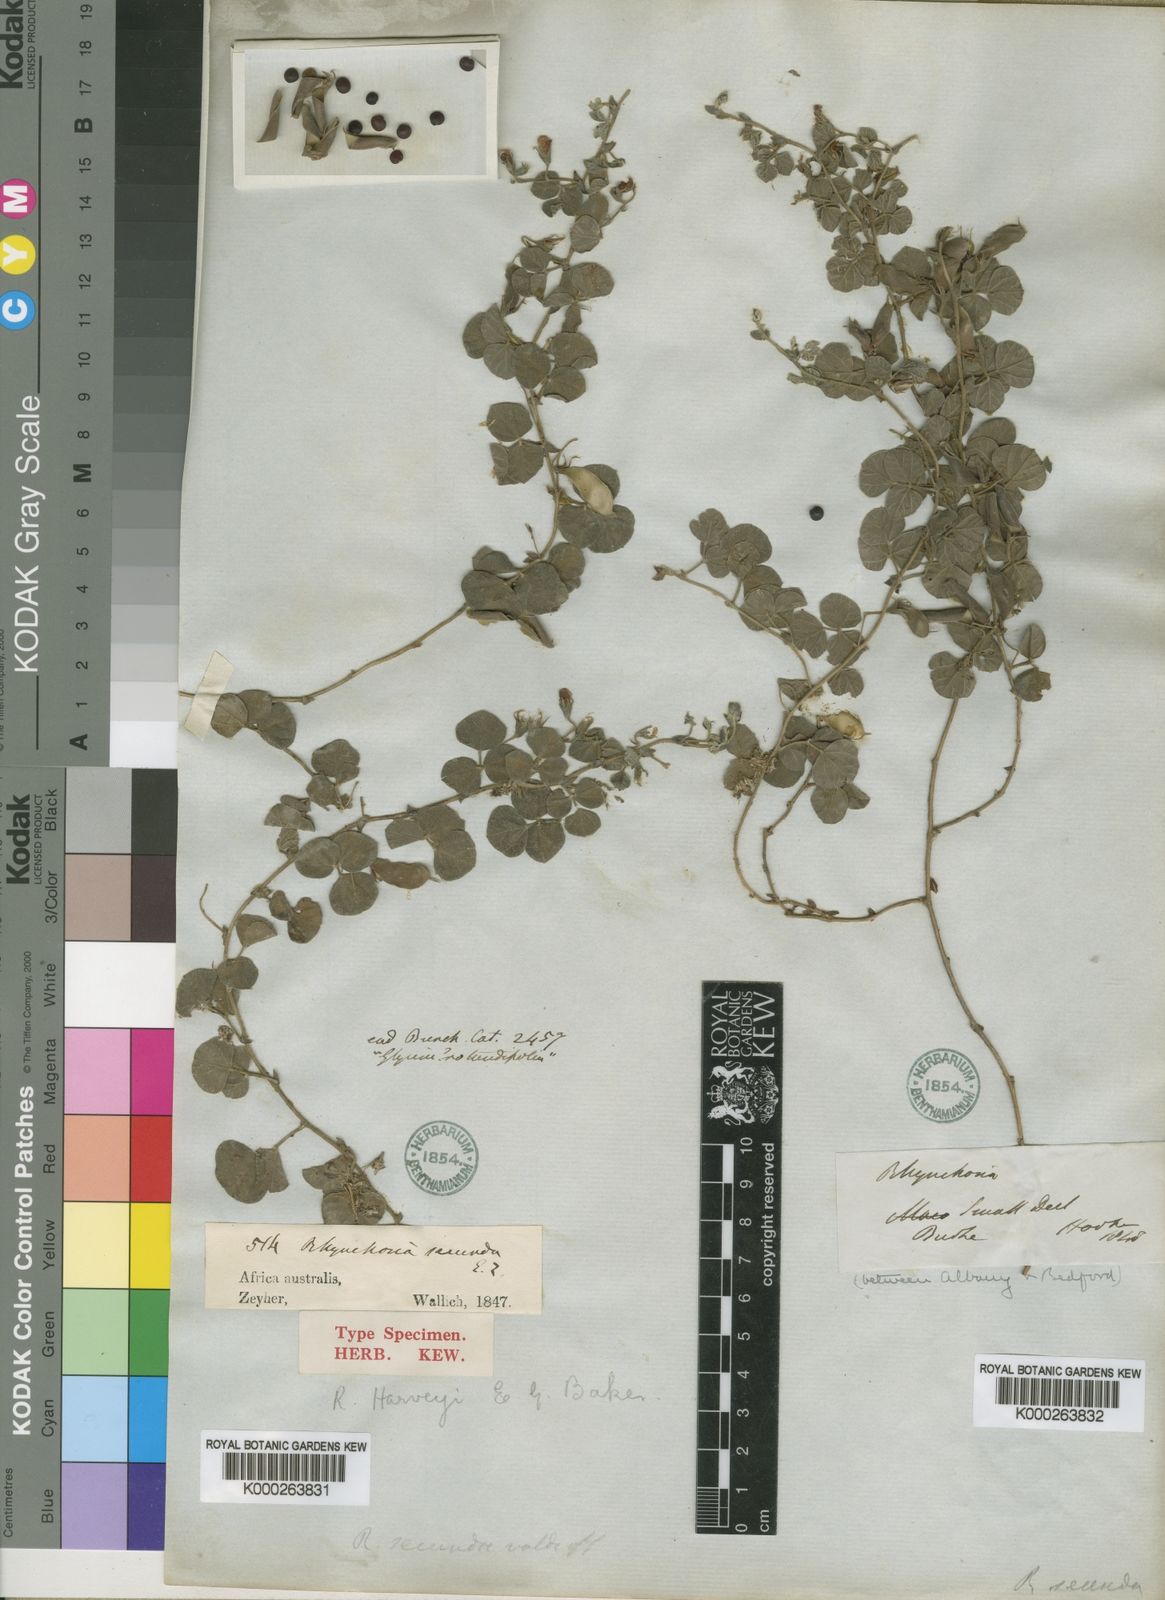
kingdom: Plantae
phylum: Tracheophyta
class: Magnoliopsida
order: Fabales
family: Fabaceae
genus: Rhynchosia
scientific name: Rhynchosia
